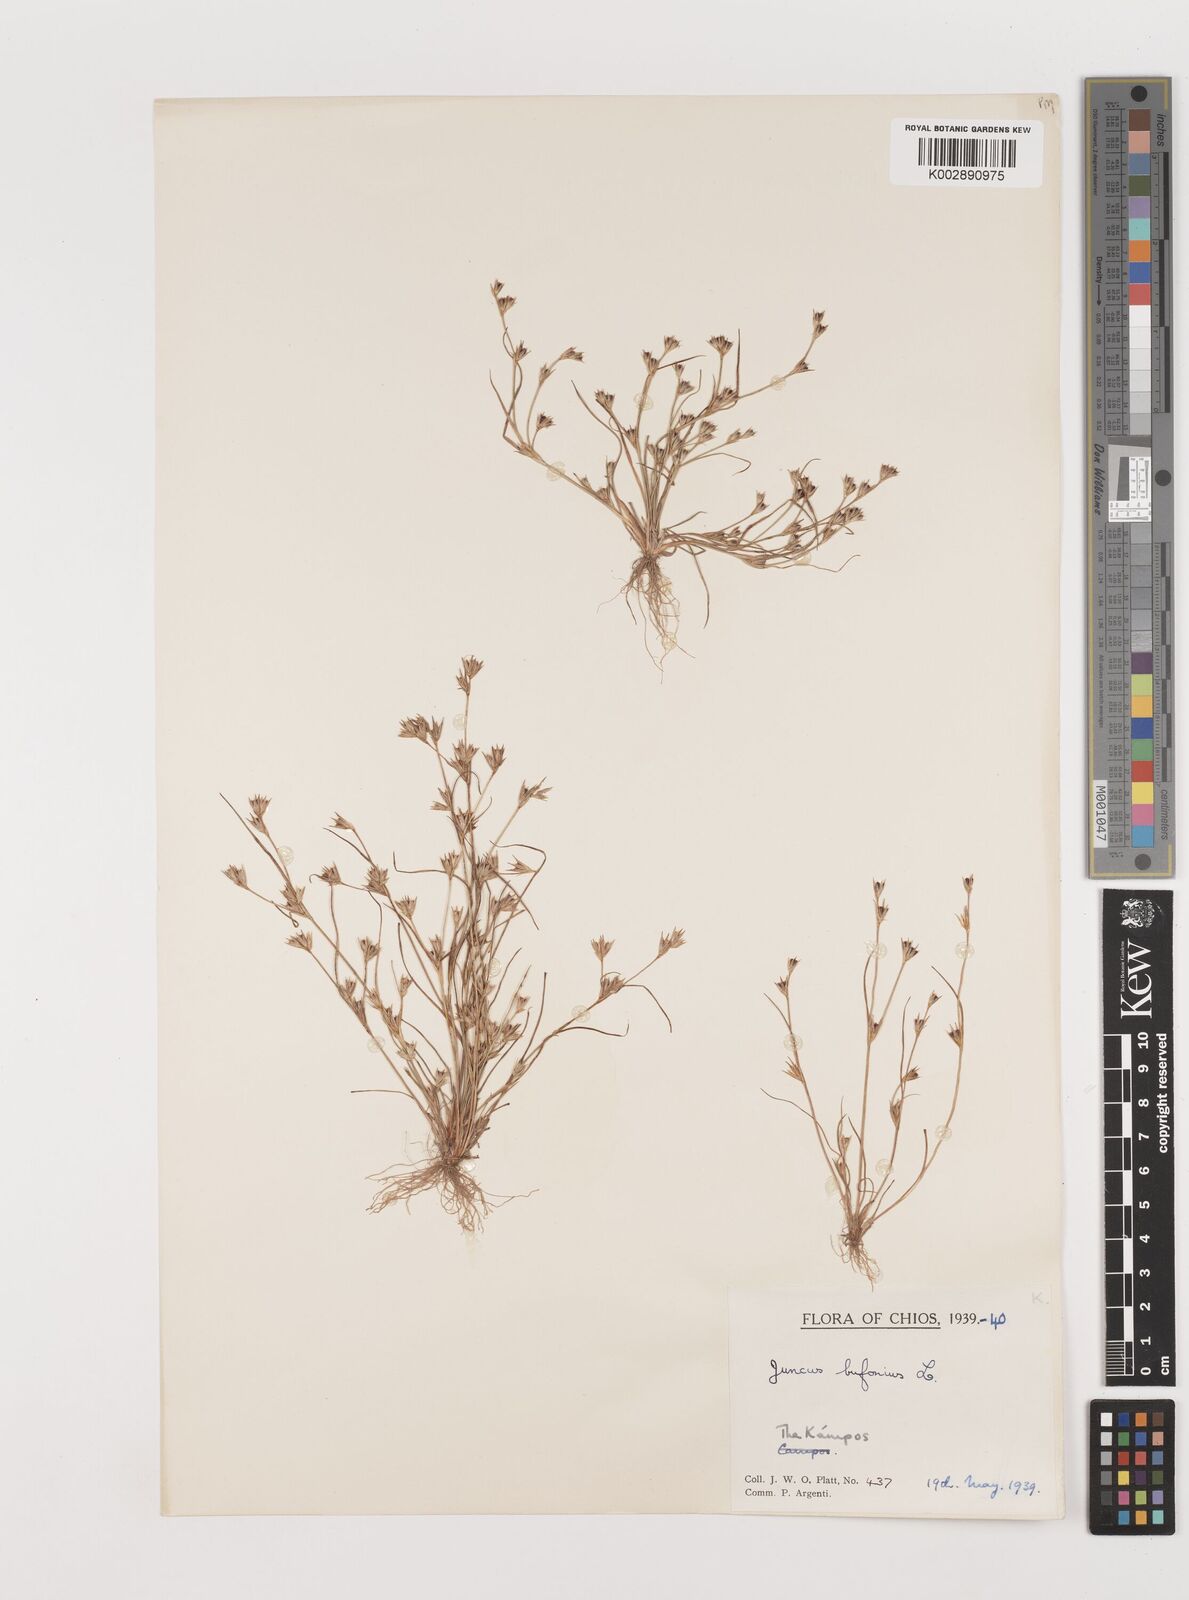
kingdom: Plantae
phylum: Tracheophyta
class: Liliopsida
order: Poales
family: Juncaceae
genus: Juncus
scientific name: Juncus bufonius
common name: Toad rush
